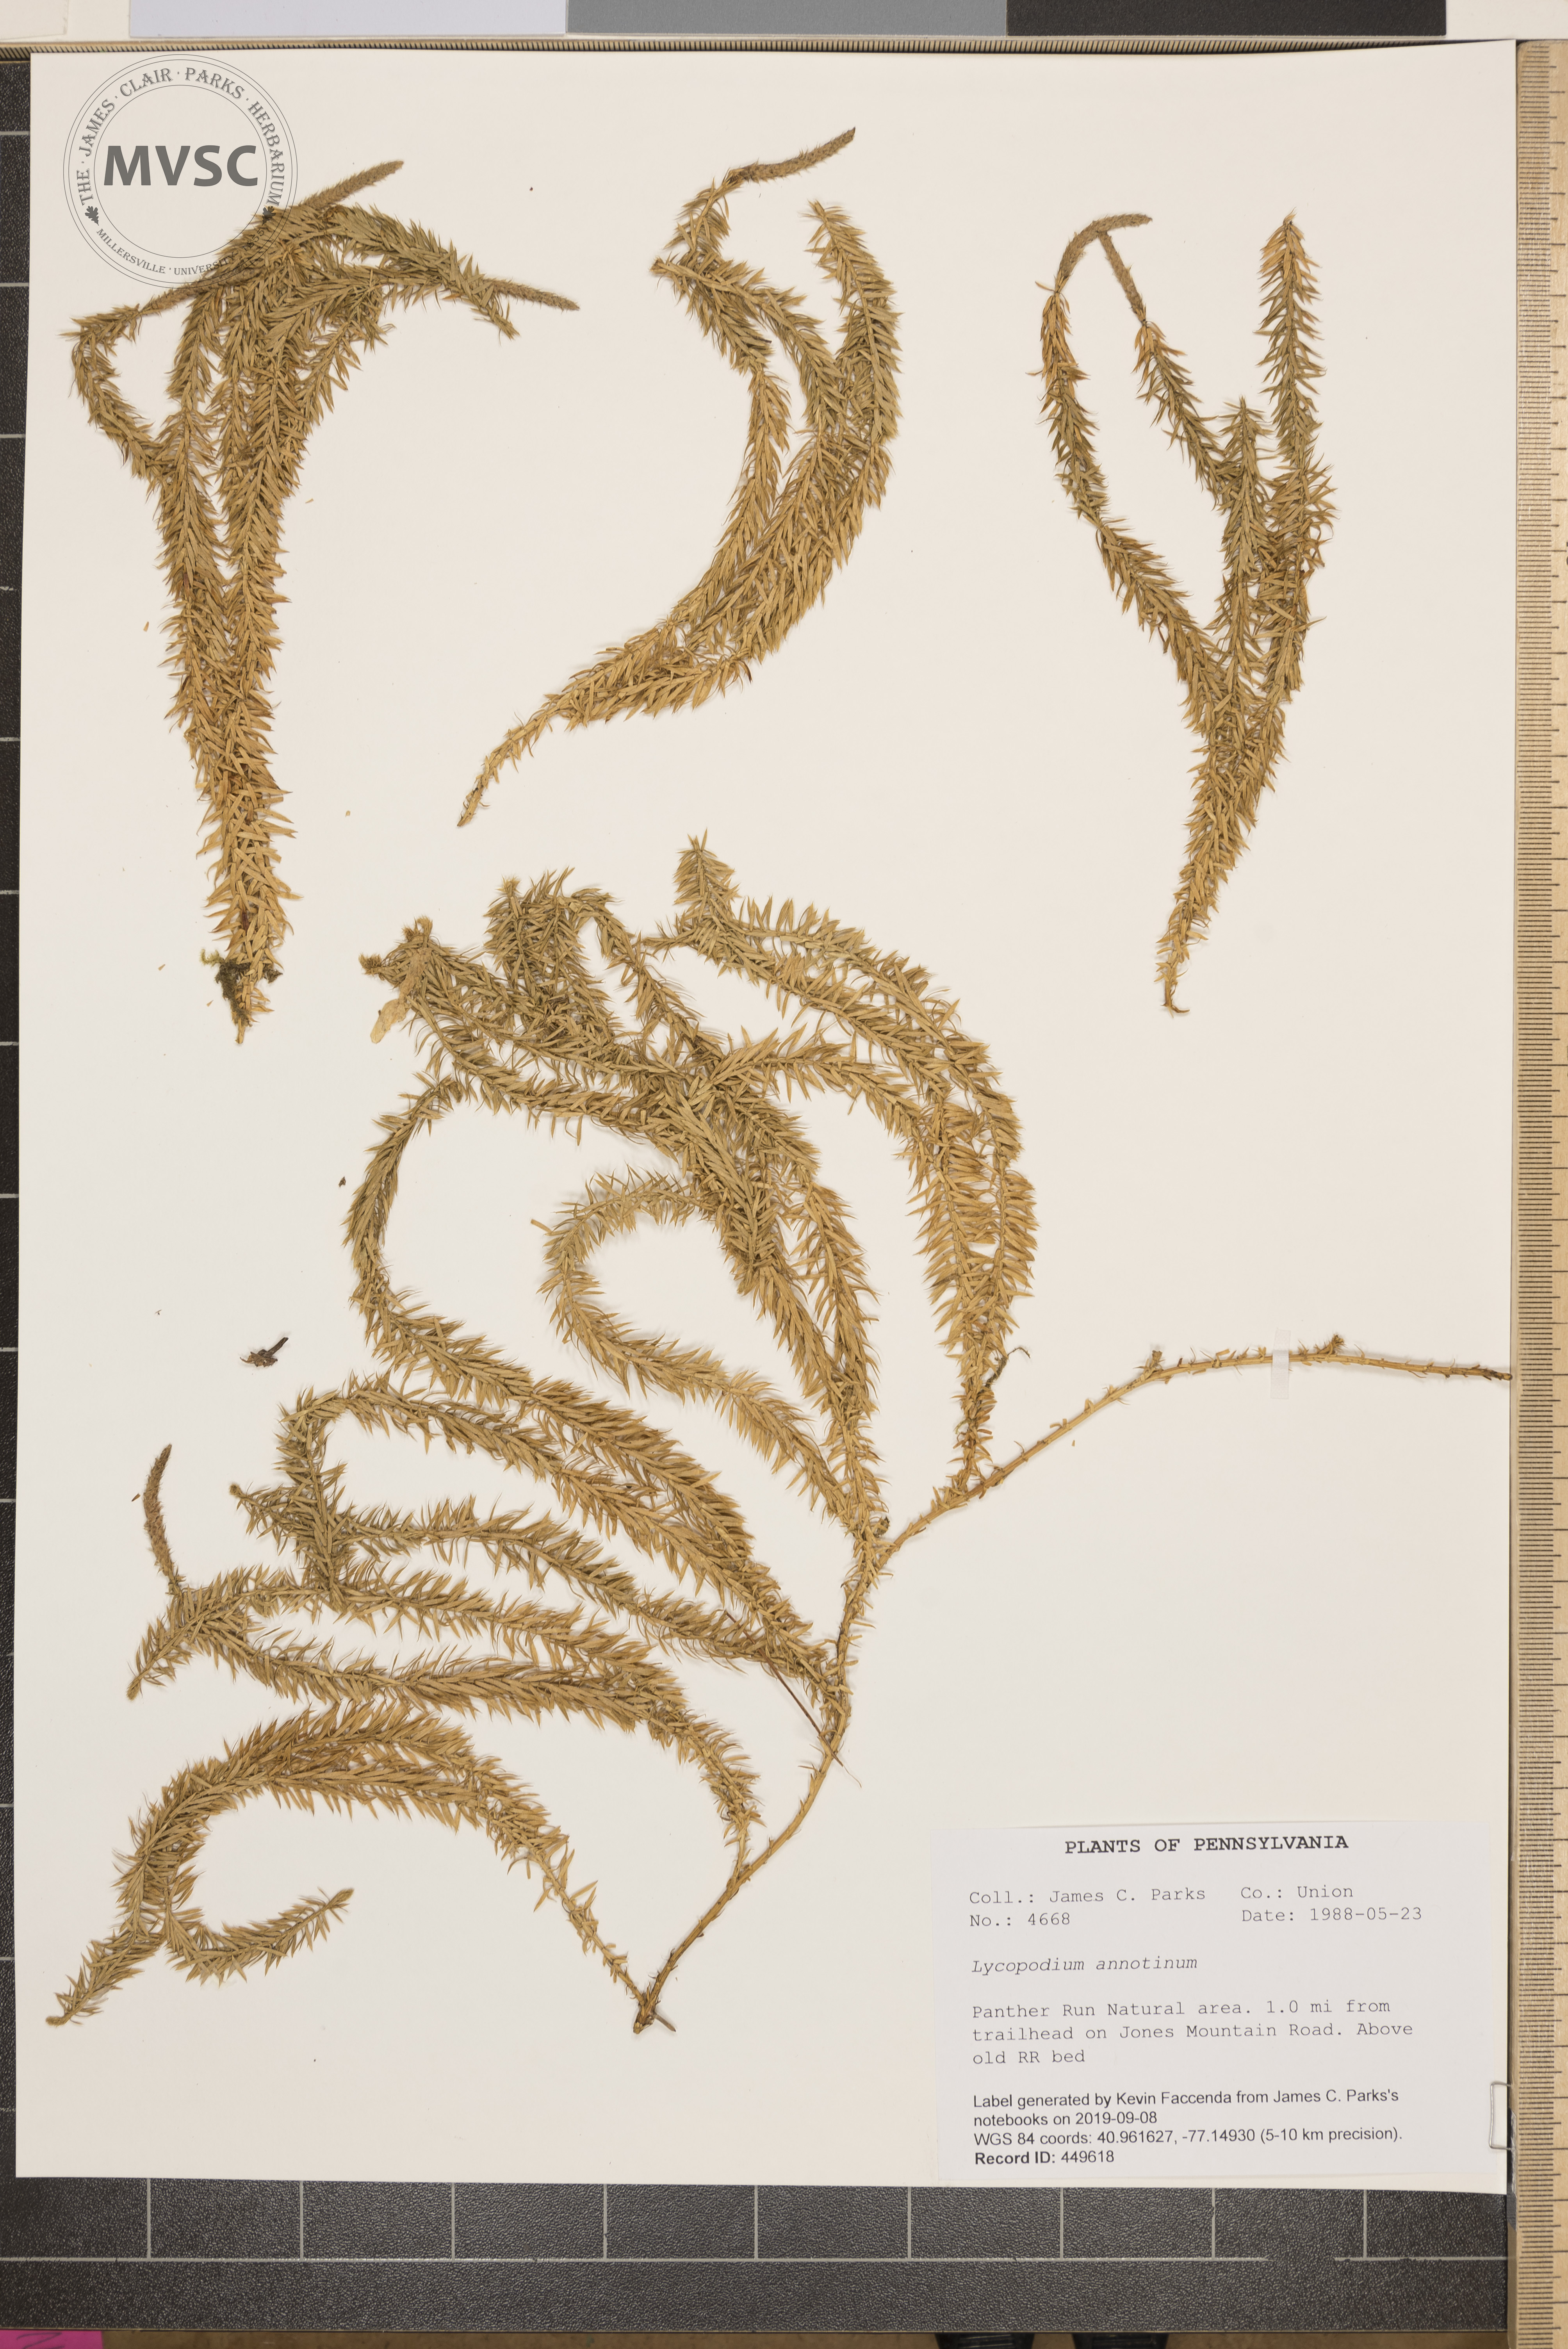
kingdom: Plantae
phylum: Tracheophyta
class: Lycopodiopsida
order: Lycopodiales
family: Lycopodiaceae
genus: Spinulum
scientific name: Spinulum annotinum
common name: Interrupted club-moss
